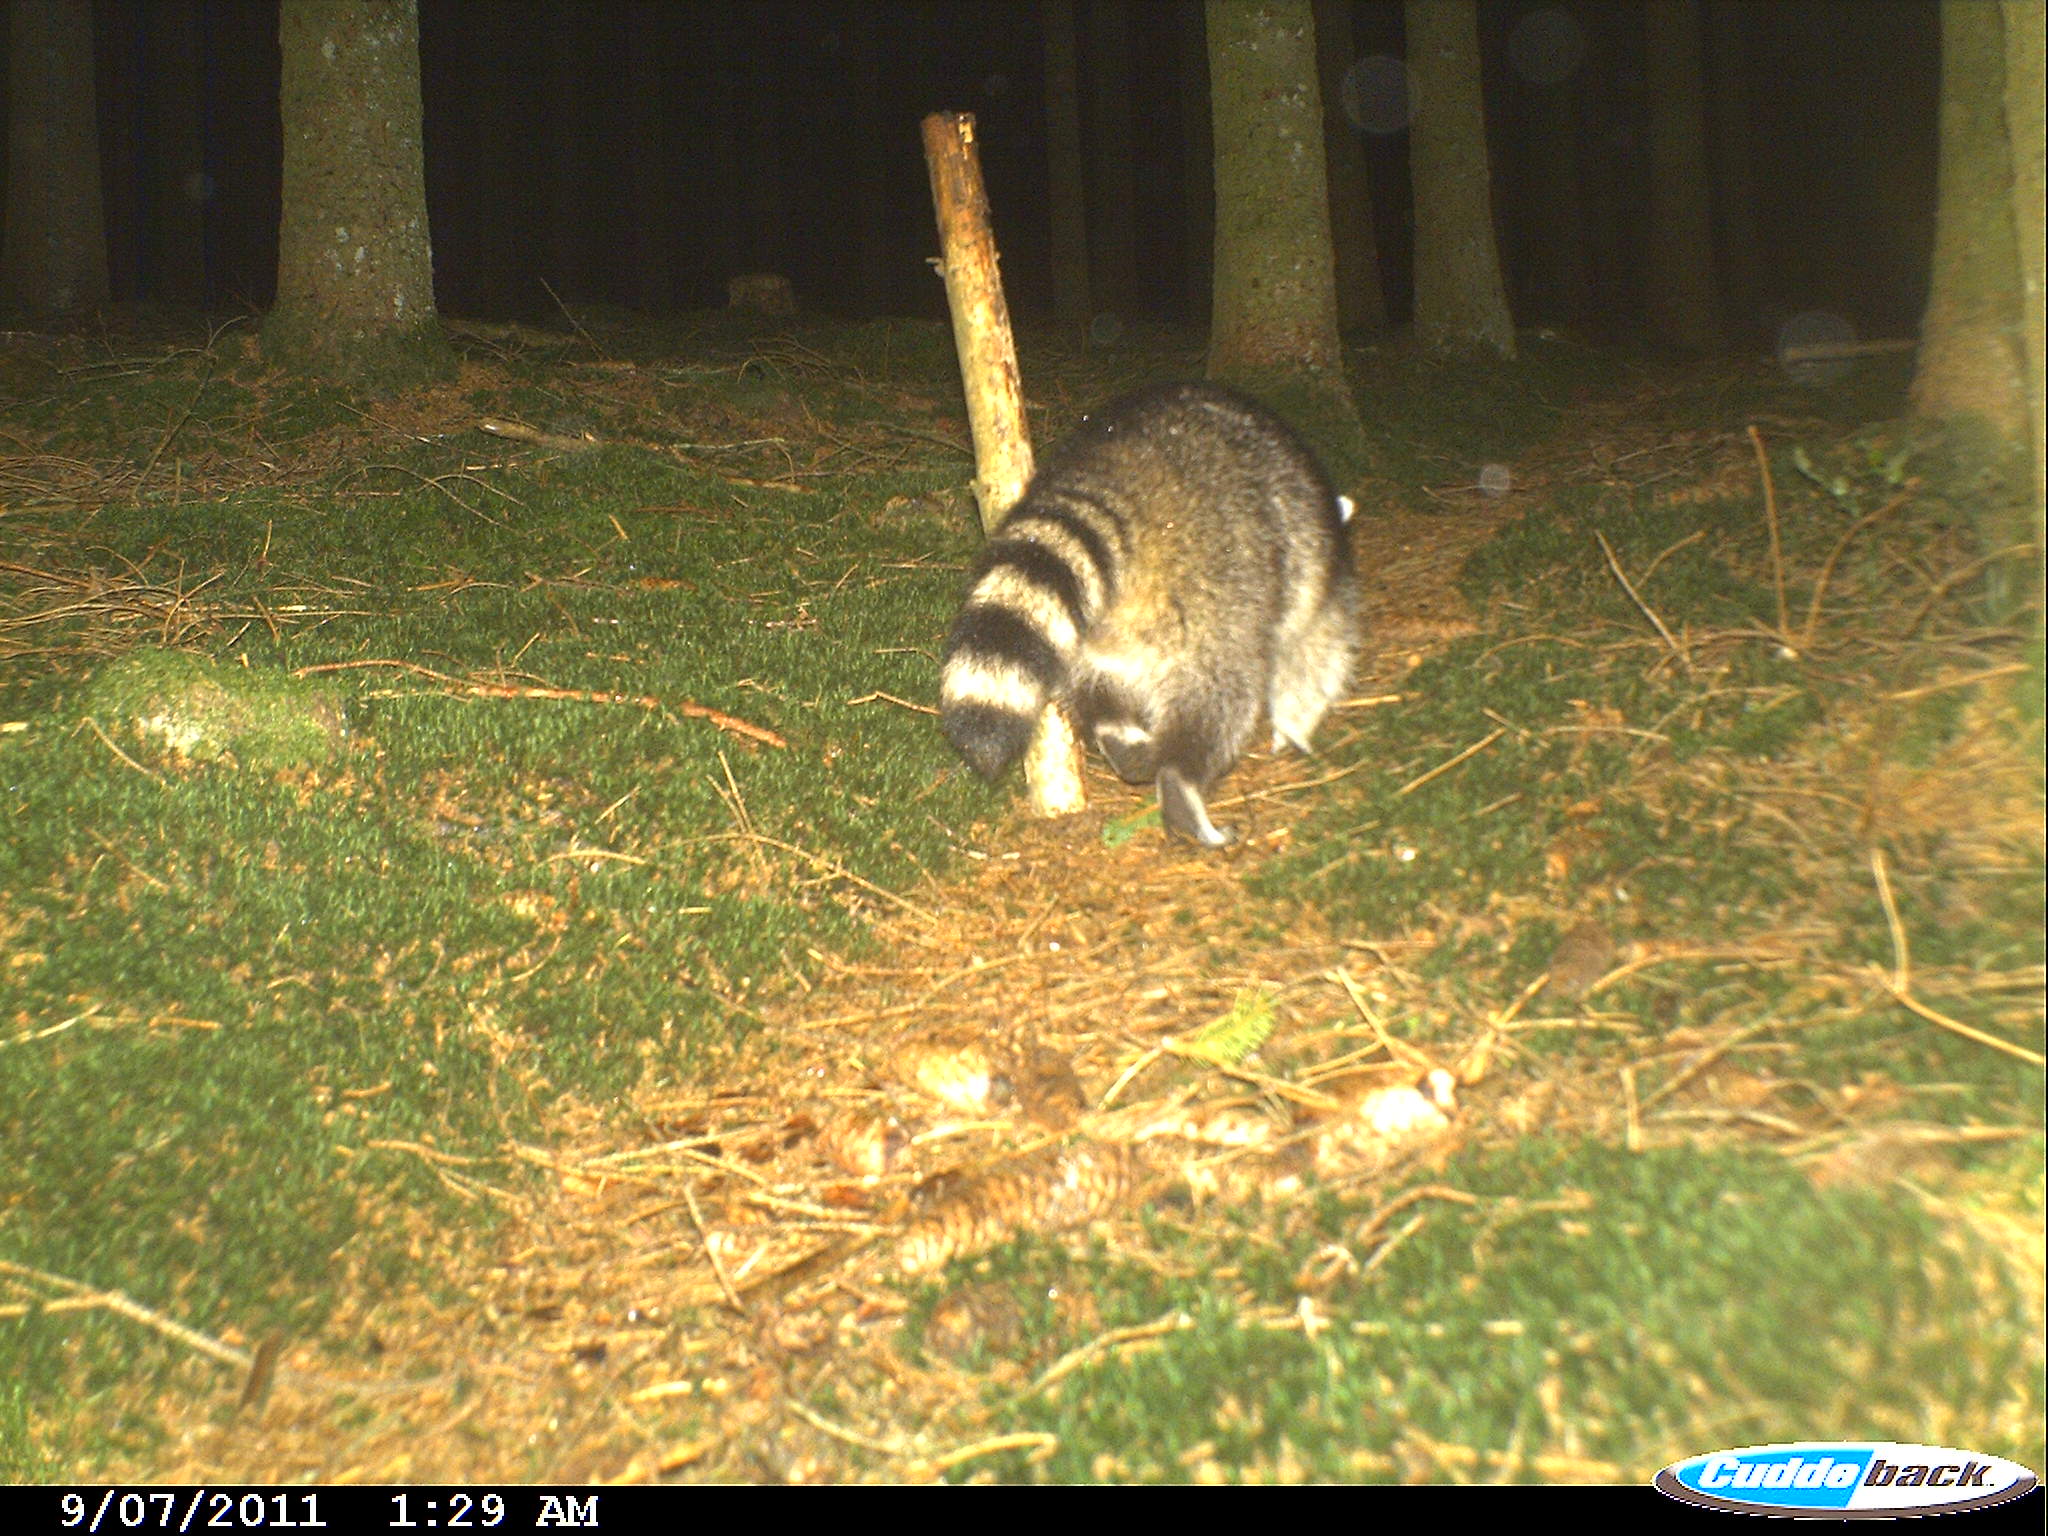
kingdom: Animalia
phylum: Chordata
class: Mammalia
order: Carnivora
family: Procyonidae
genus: Procyon
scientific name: Procyon lotor
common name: Raccoon
